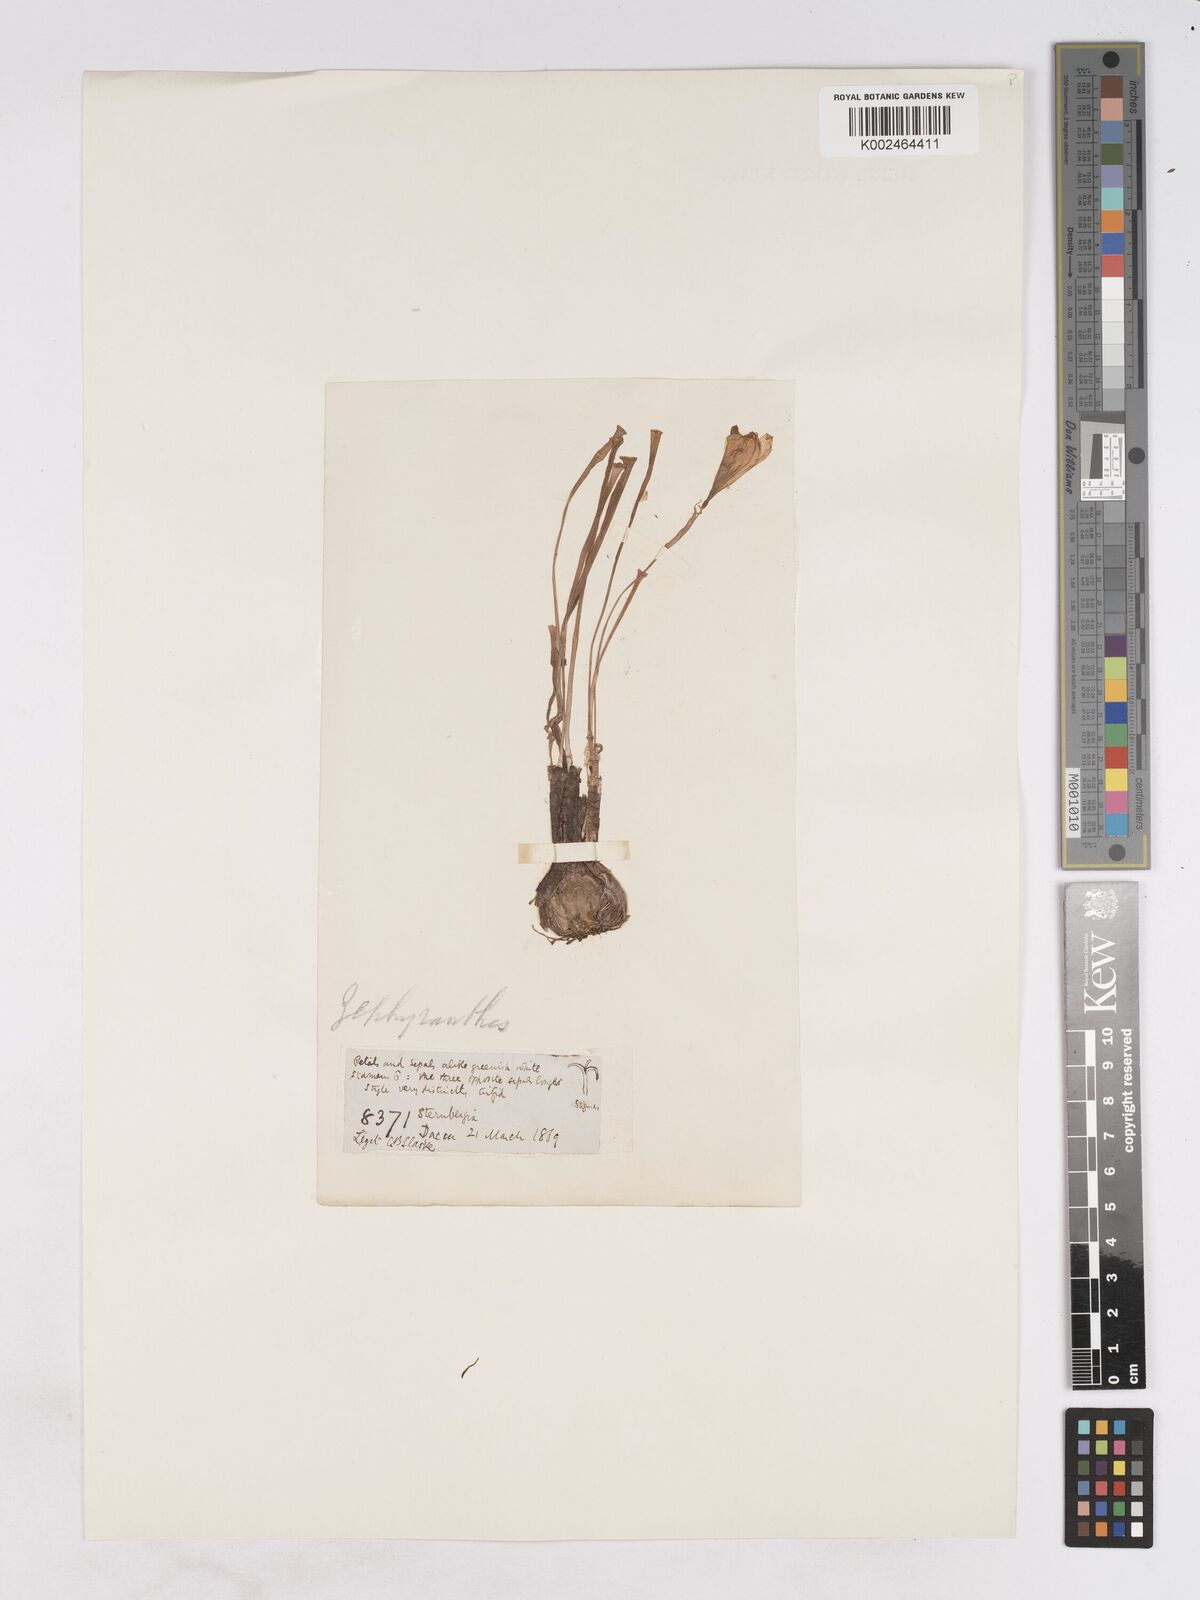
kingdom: Plantae
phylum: Tracheophyta
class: Liliopsida
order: Asparagales
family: Amaryllidaceae
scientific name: Amaryllidaceae
